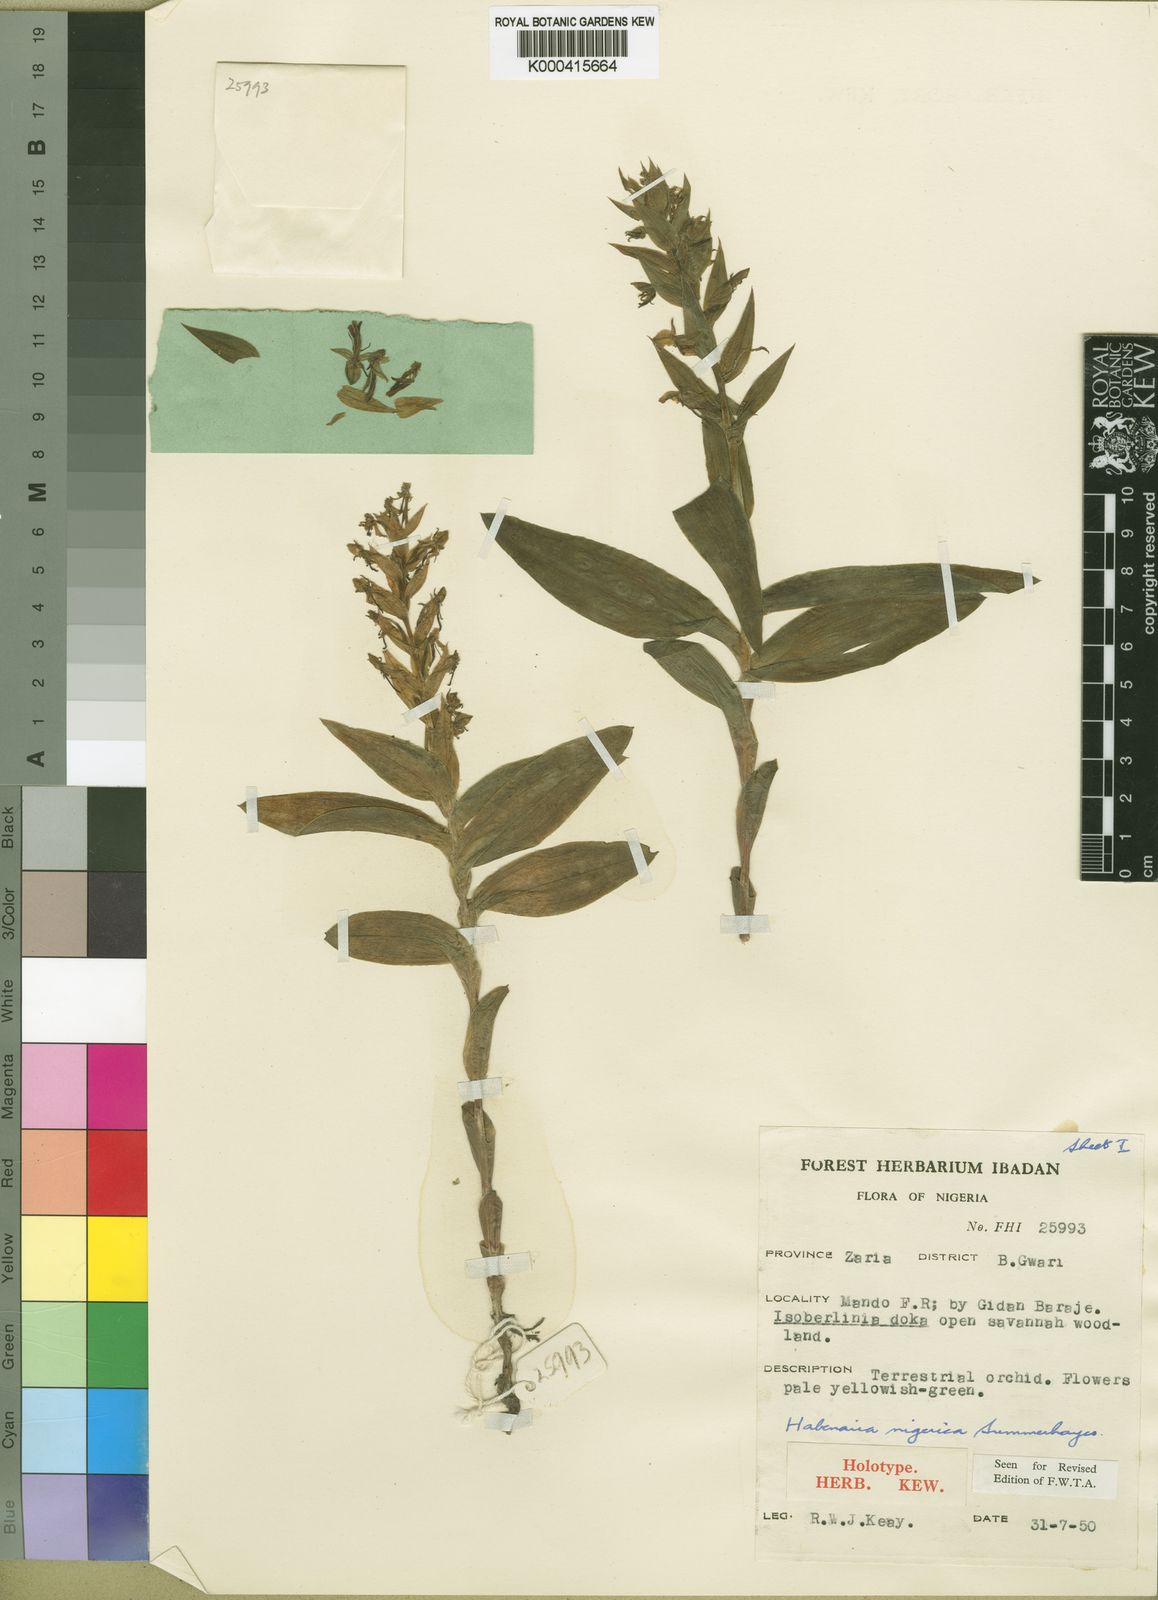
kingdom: Plantae
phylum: Tracheophyta
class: Liliopsida
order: Asparagales
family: Orchidaceae
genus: Habenaria
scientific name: Habenaria nigerica
